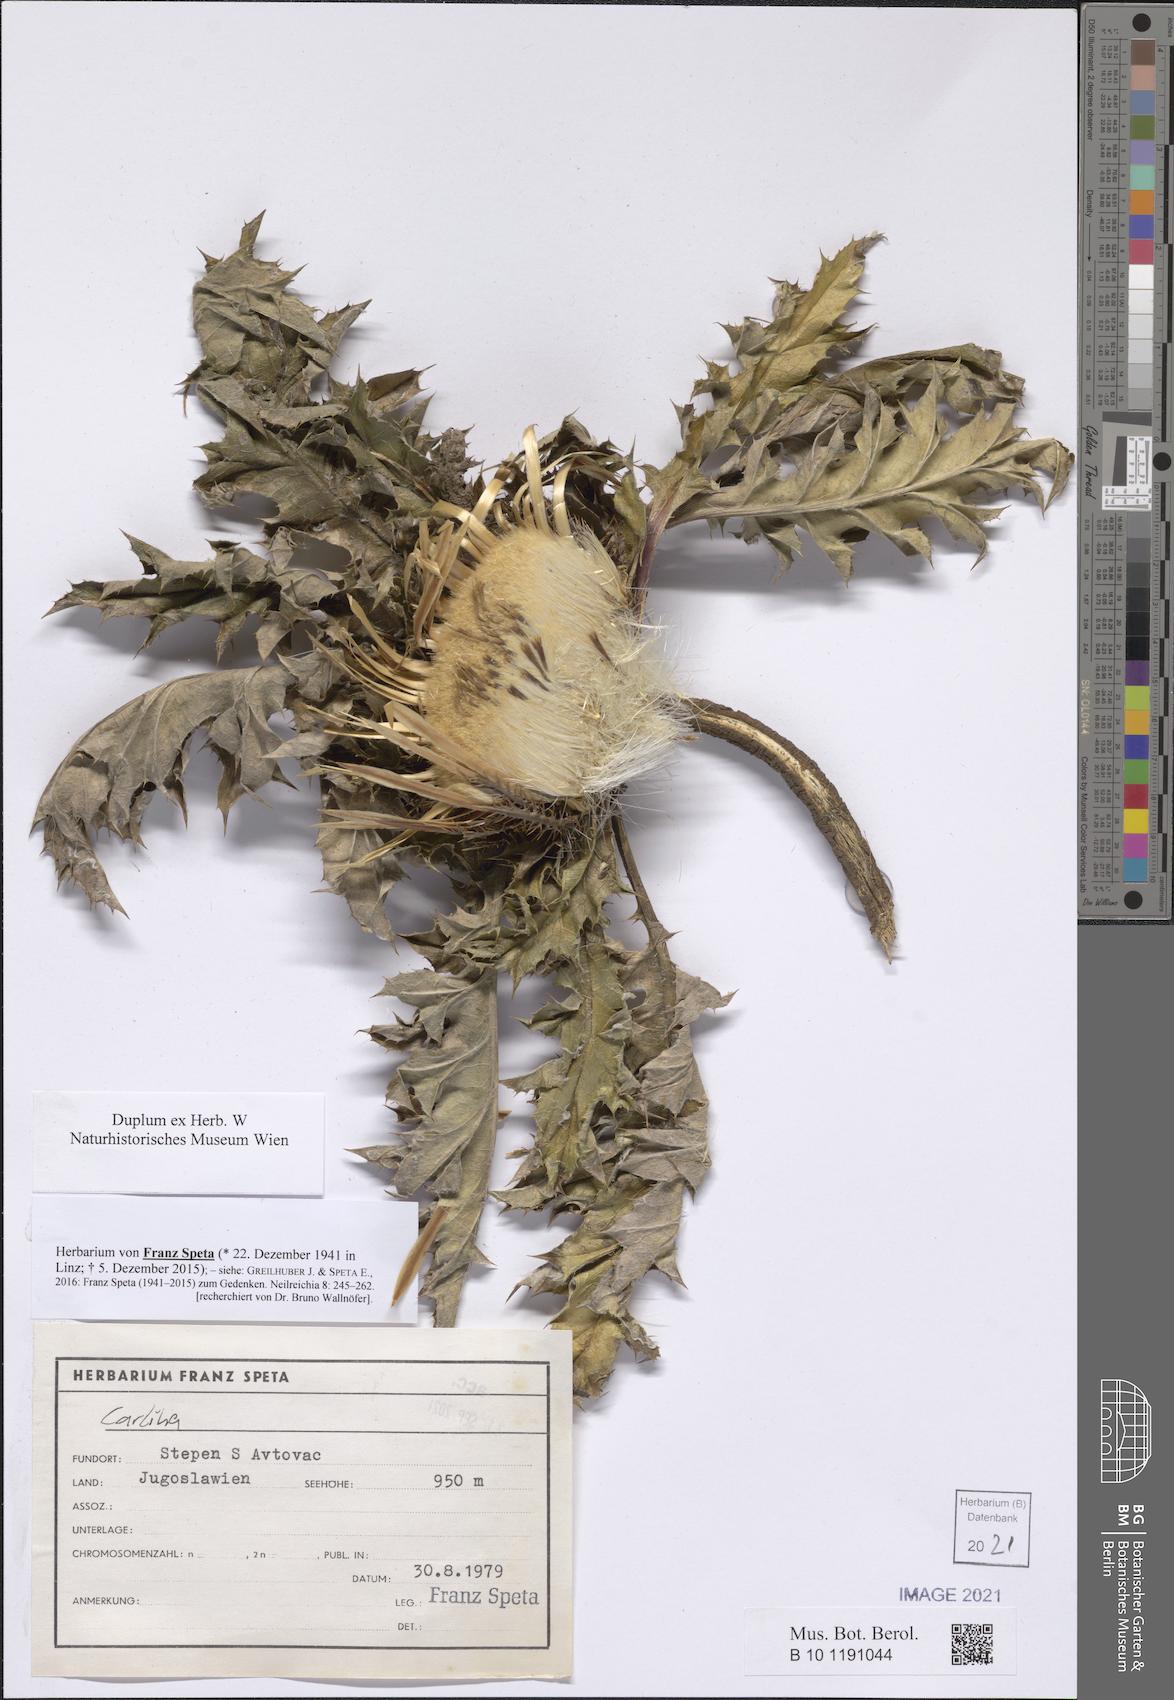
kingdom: Plantae
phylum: Tracheophyta
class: Magnoliopsida
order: Asterales
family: Asteraceae
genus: Carlina
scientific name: Carlina
